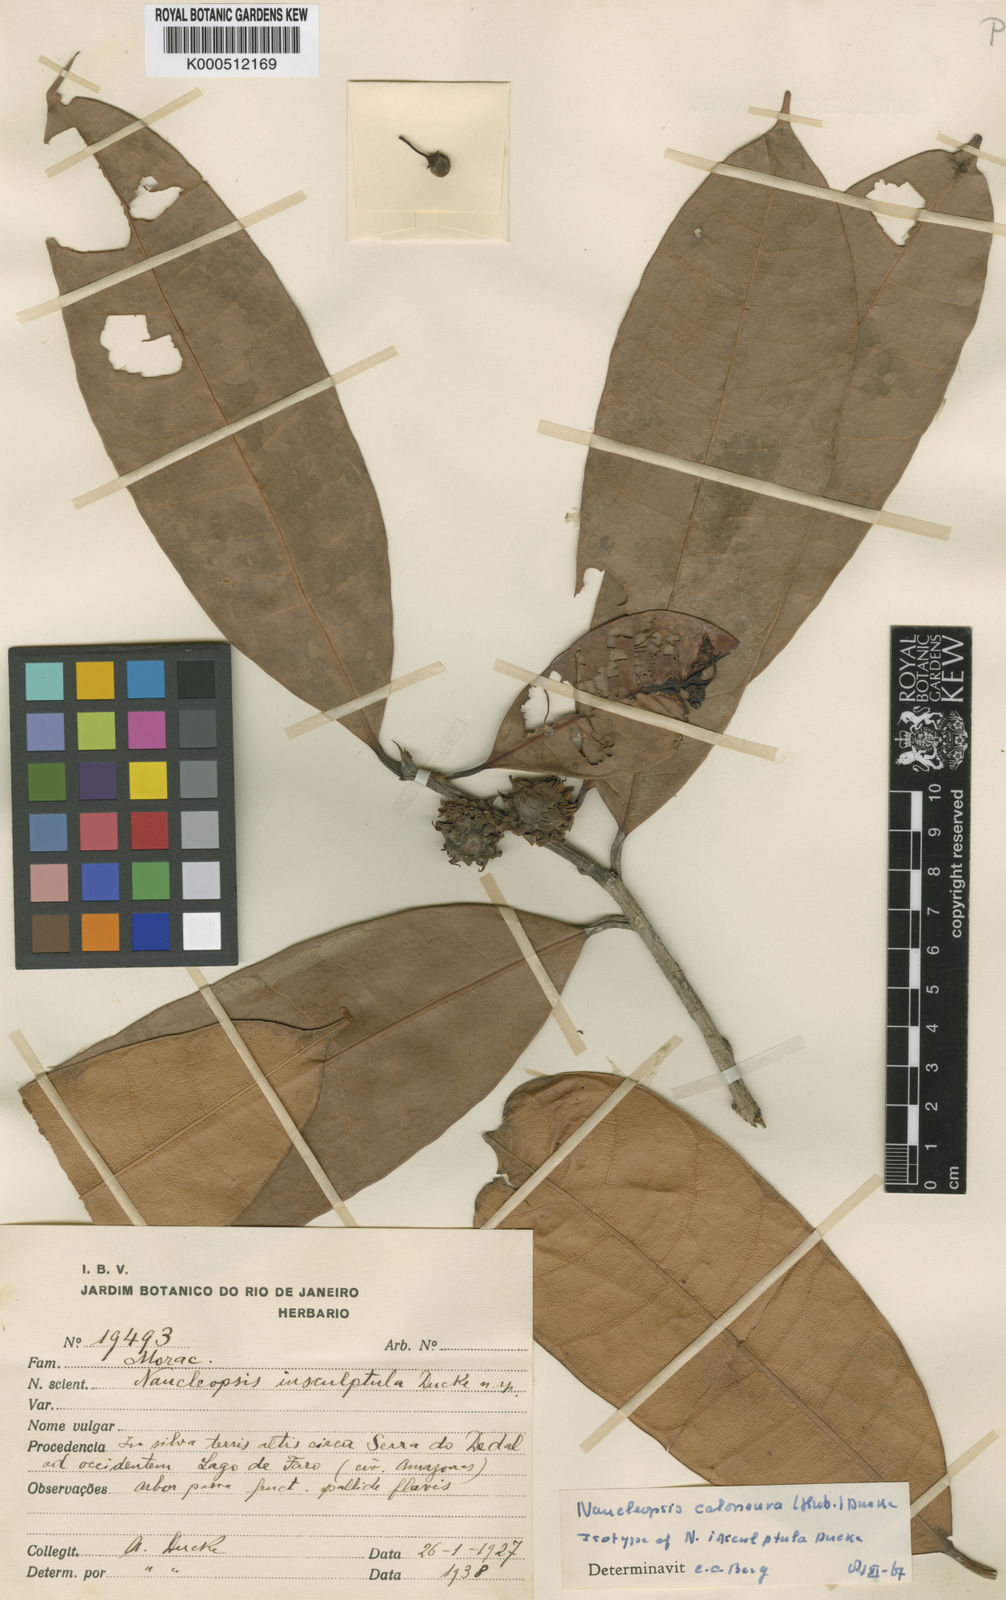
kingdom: Plantae
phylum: Tracheophyta
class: Magnoliopsida
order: Rosales
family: Moraceae
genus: Naucleopsis
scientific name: Naucleopsis caloneura
